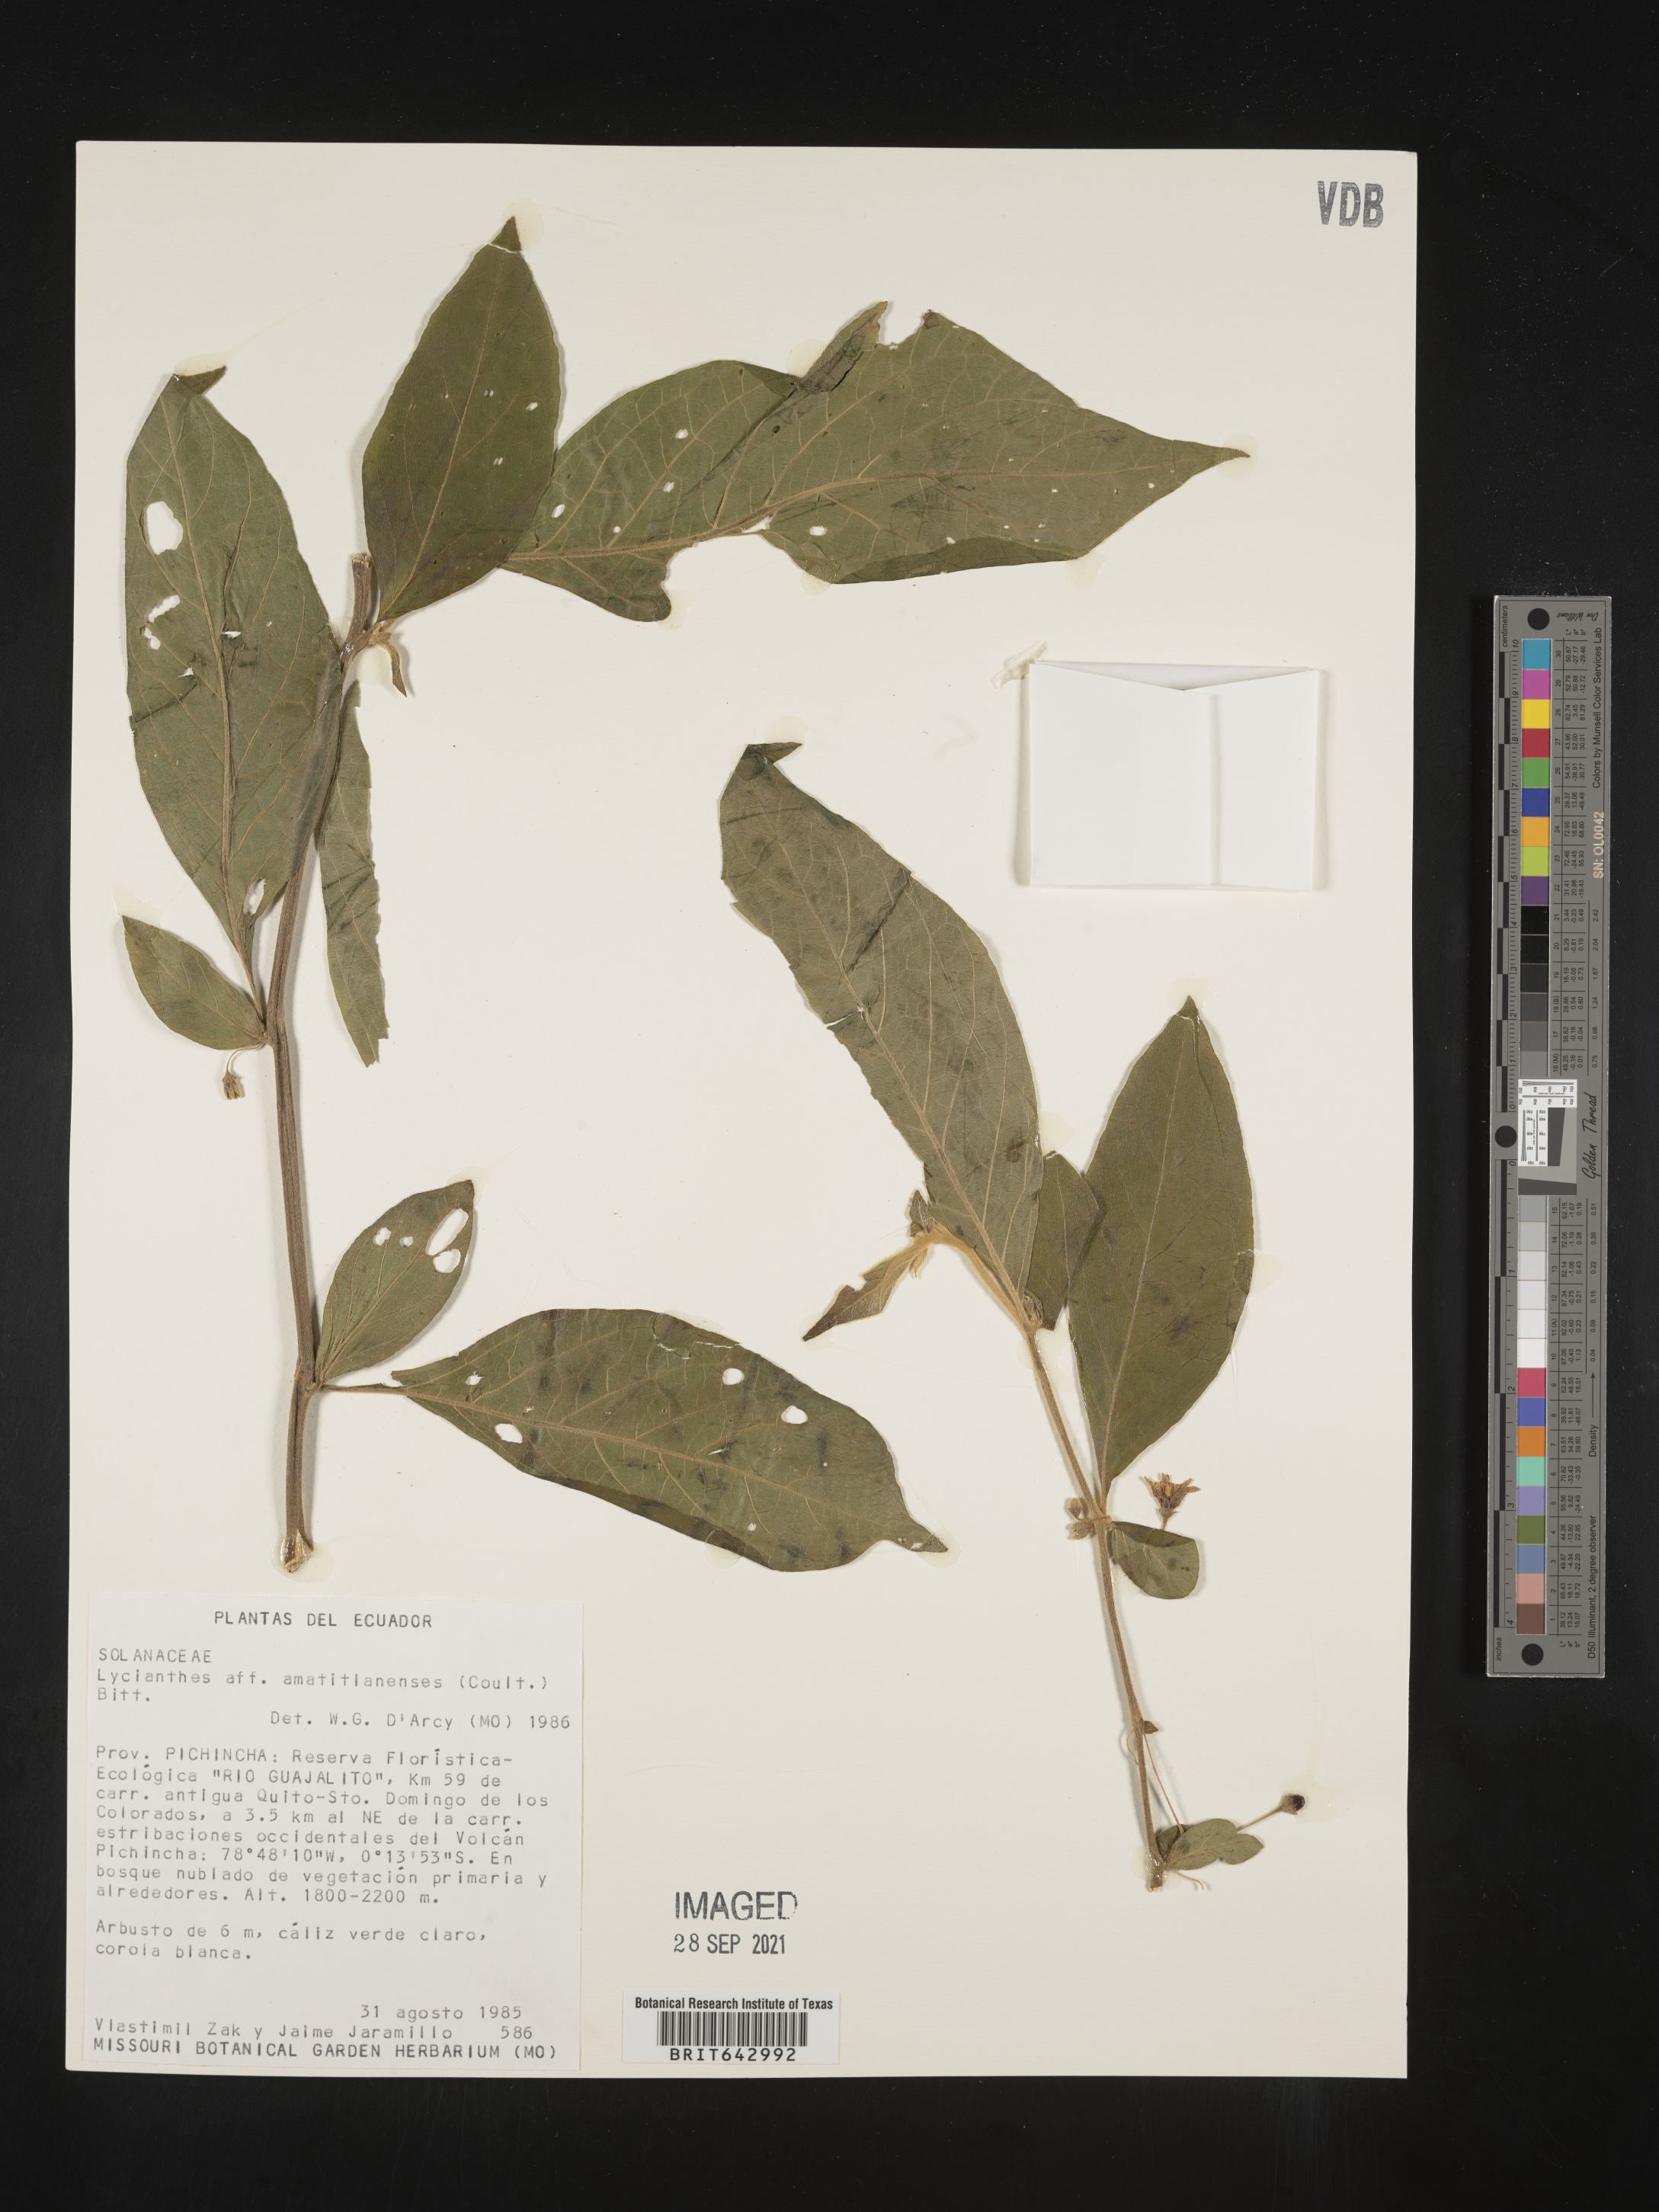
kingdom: Plantae
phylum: Tracheophyta
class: Magnoliopsida
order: Solanales
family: Solanaceae
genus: Lycianthes
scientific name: Lycianthes
